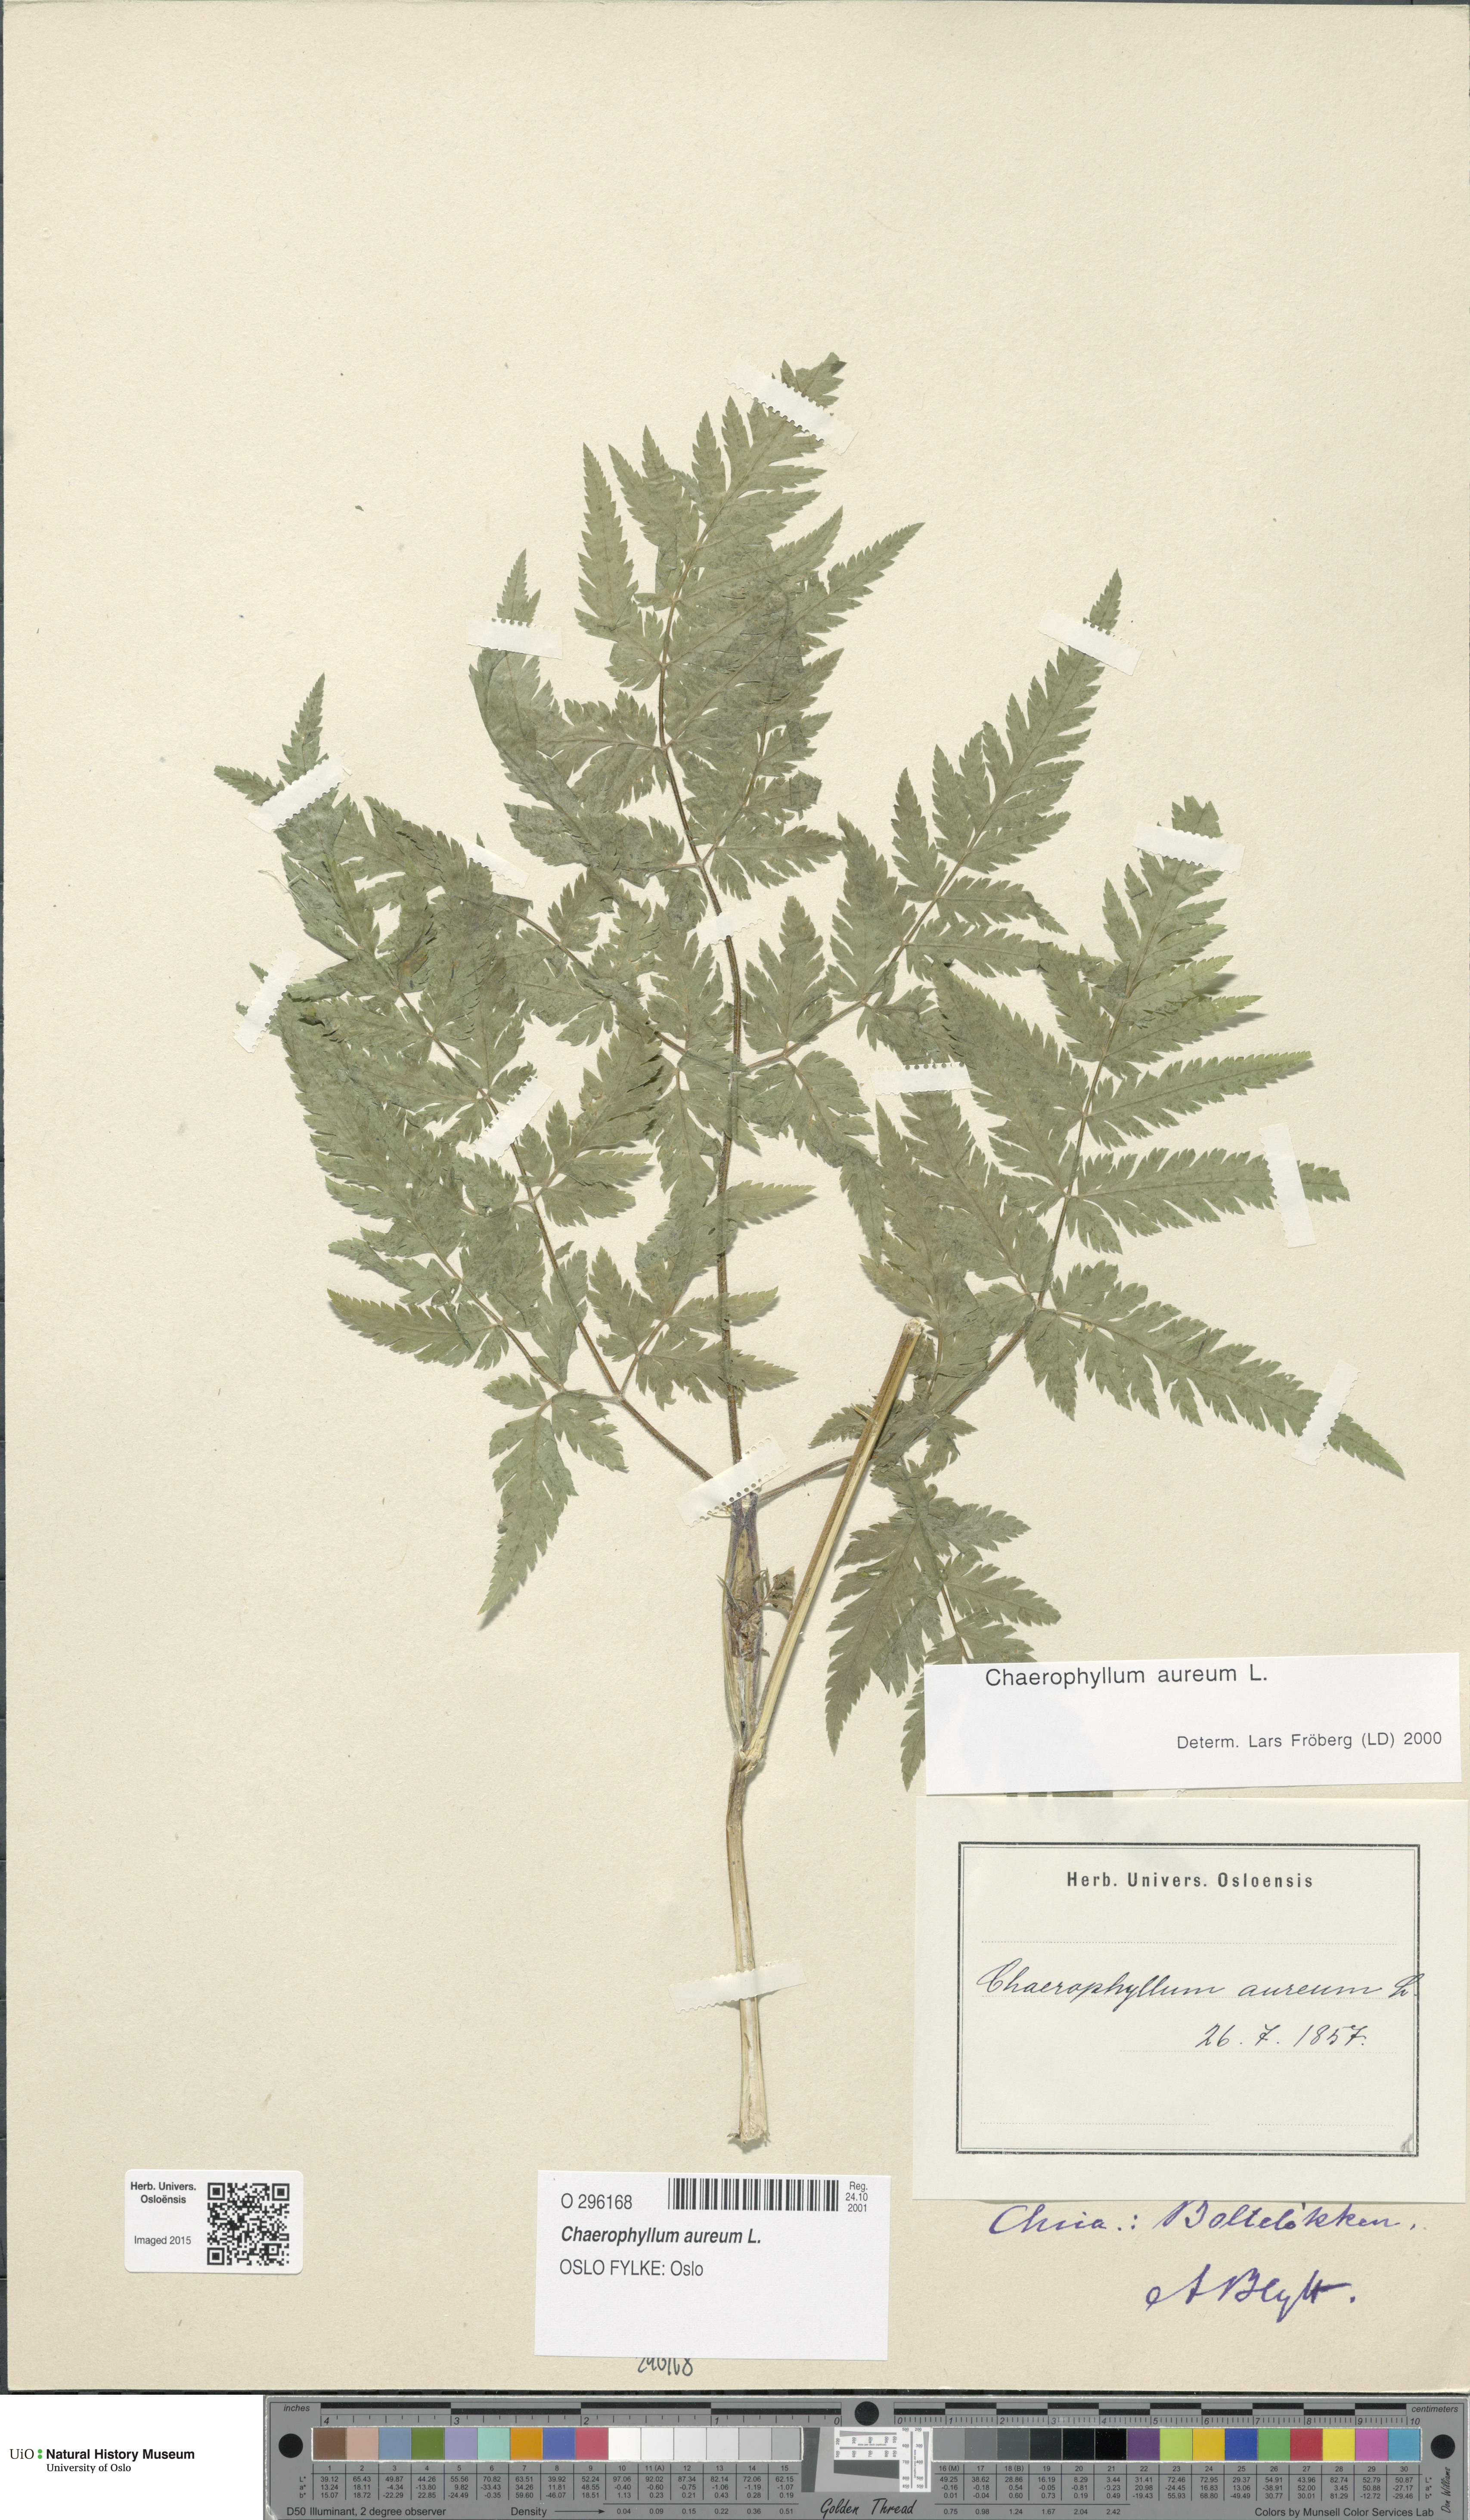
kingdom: Plantae
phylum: Tracheophyta
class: Magnoliopsida
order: Apiales
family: Apiaceae
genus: Chaerophyllum
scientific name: Chaerophyllum aureum
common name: Golden chervil
